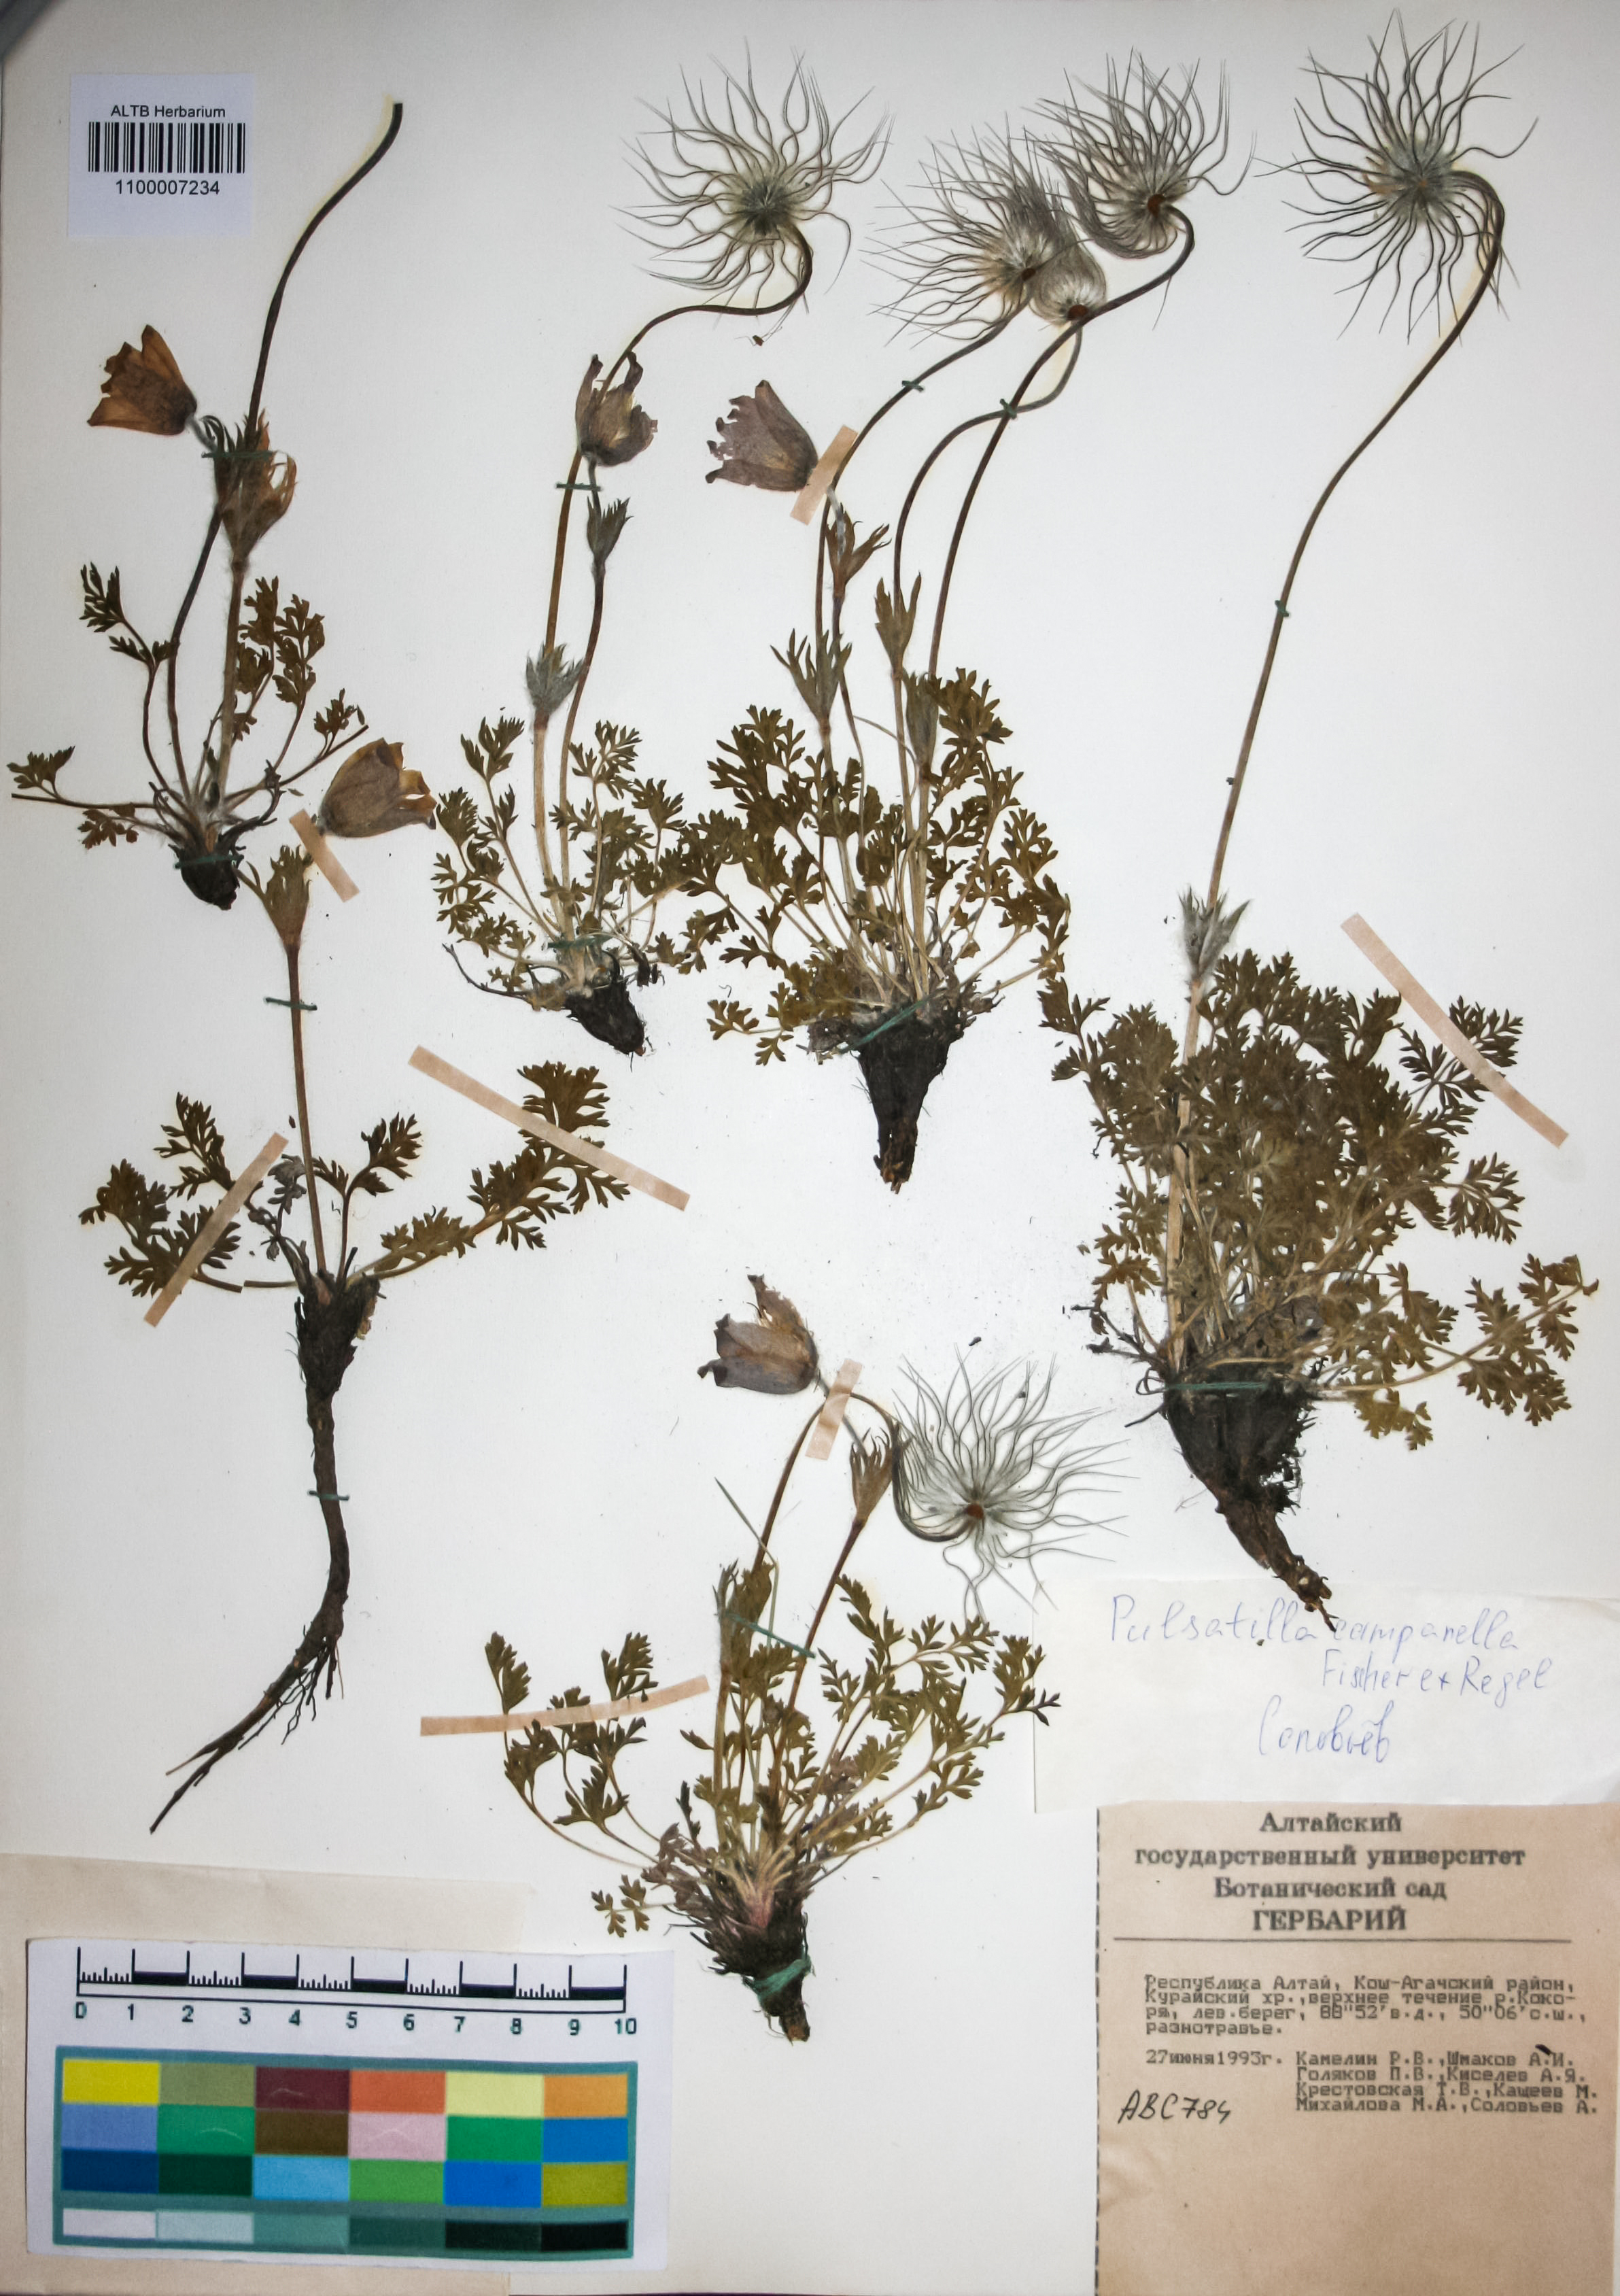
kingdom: Plantae
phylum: Tracheophyta
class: Magnoliopsida
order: Ranunculales
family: Ranunculaceae
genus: Pulsatilla
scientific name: Pulsatilla campanella
